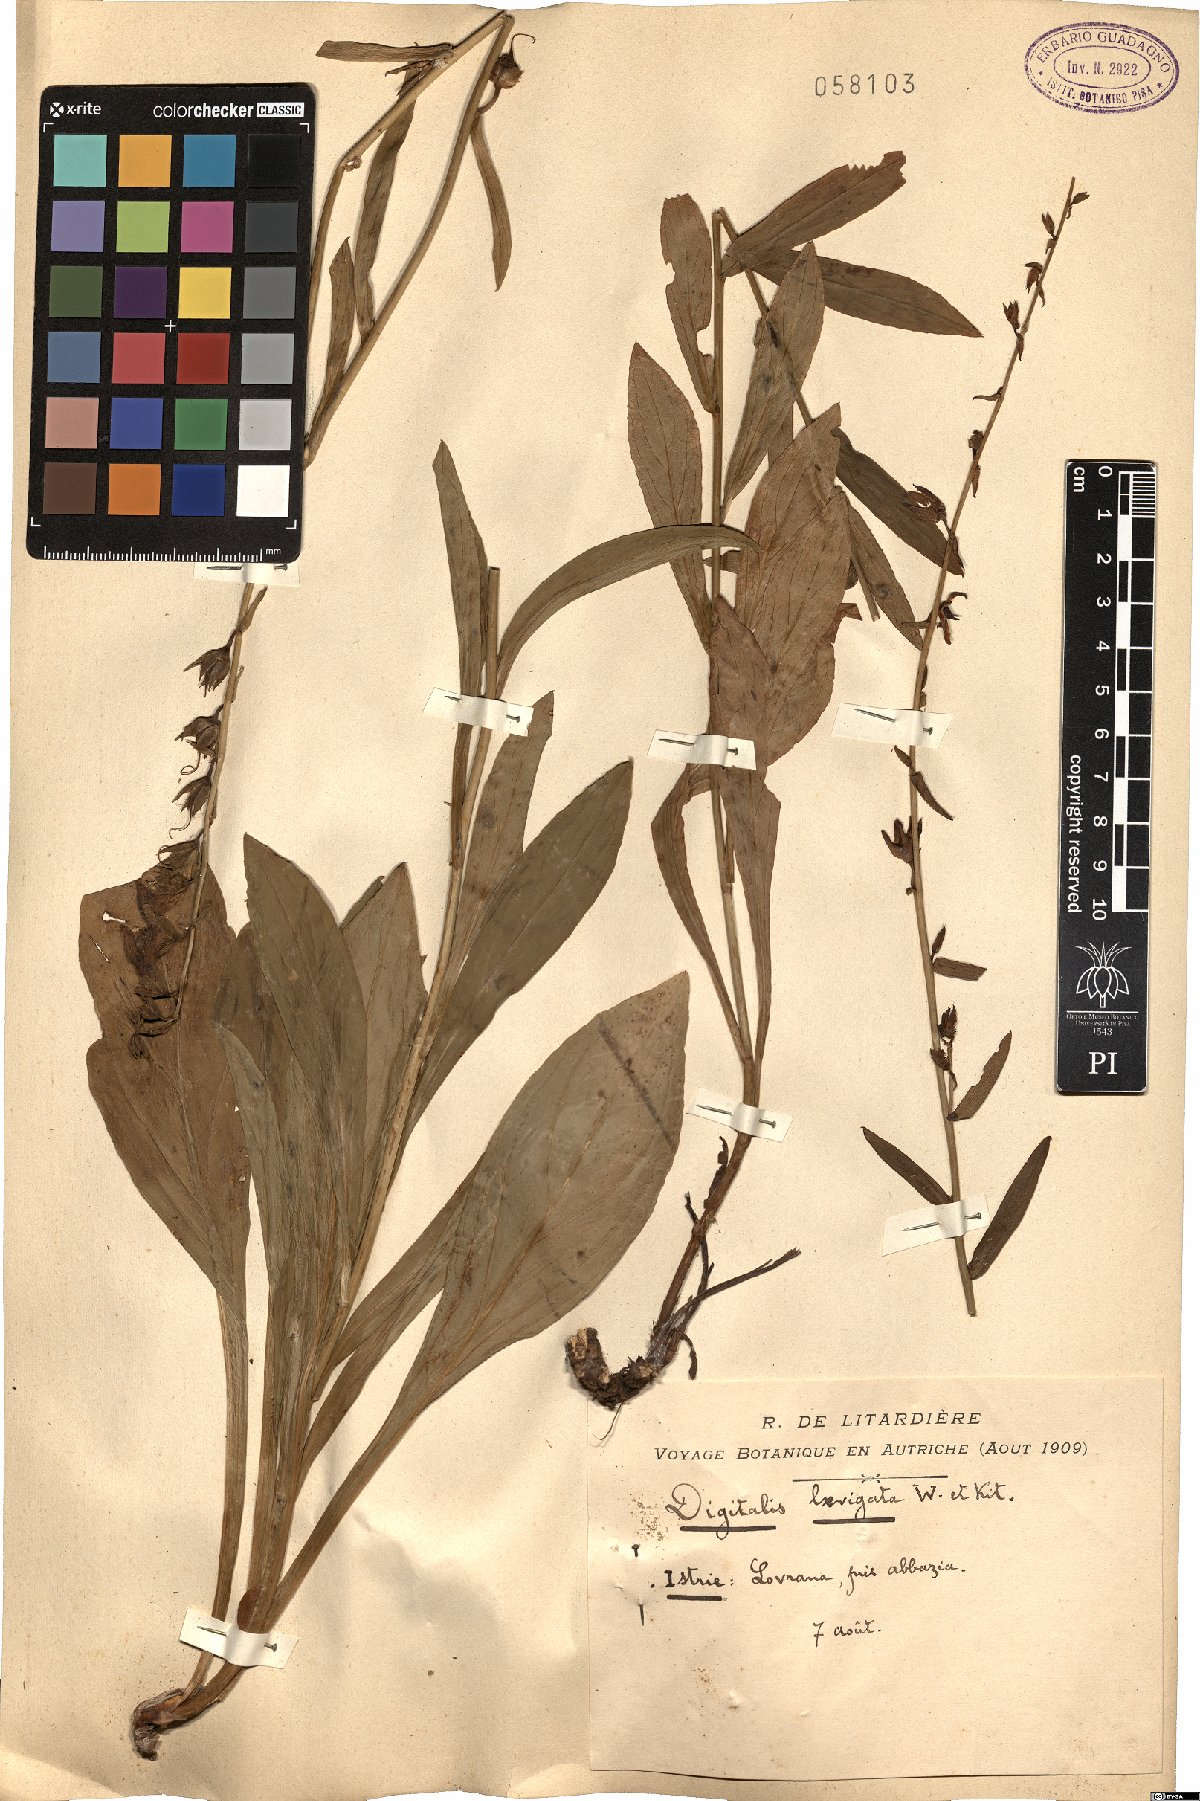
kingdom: Plantae
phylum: Tracheophyta
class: Magnoliopsida
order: Lamiales
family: Plantaginaceae
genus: Digitalis
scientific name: Digitalis laevigata
